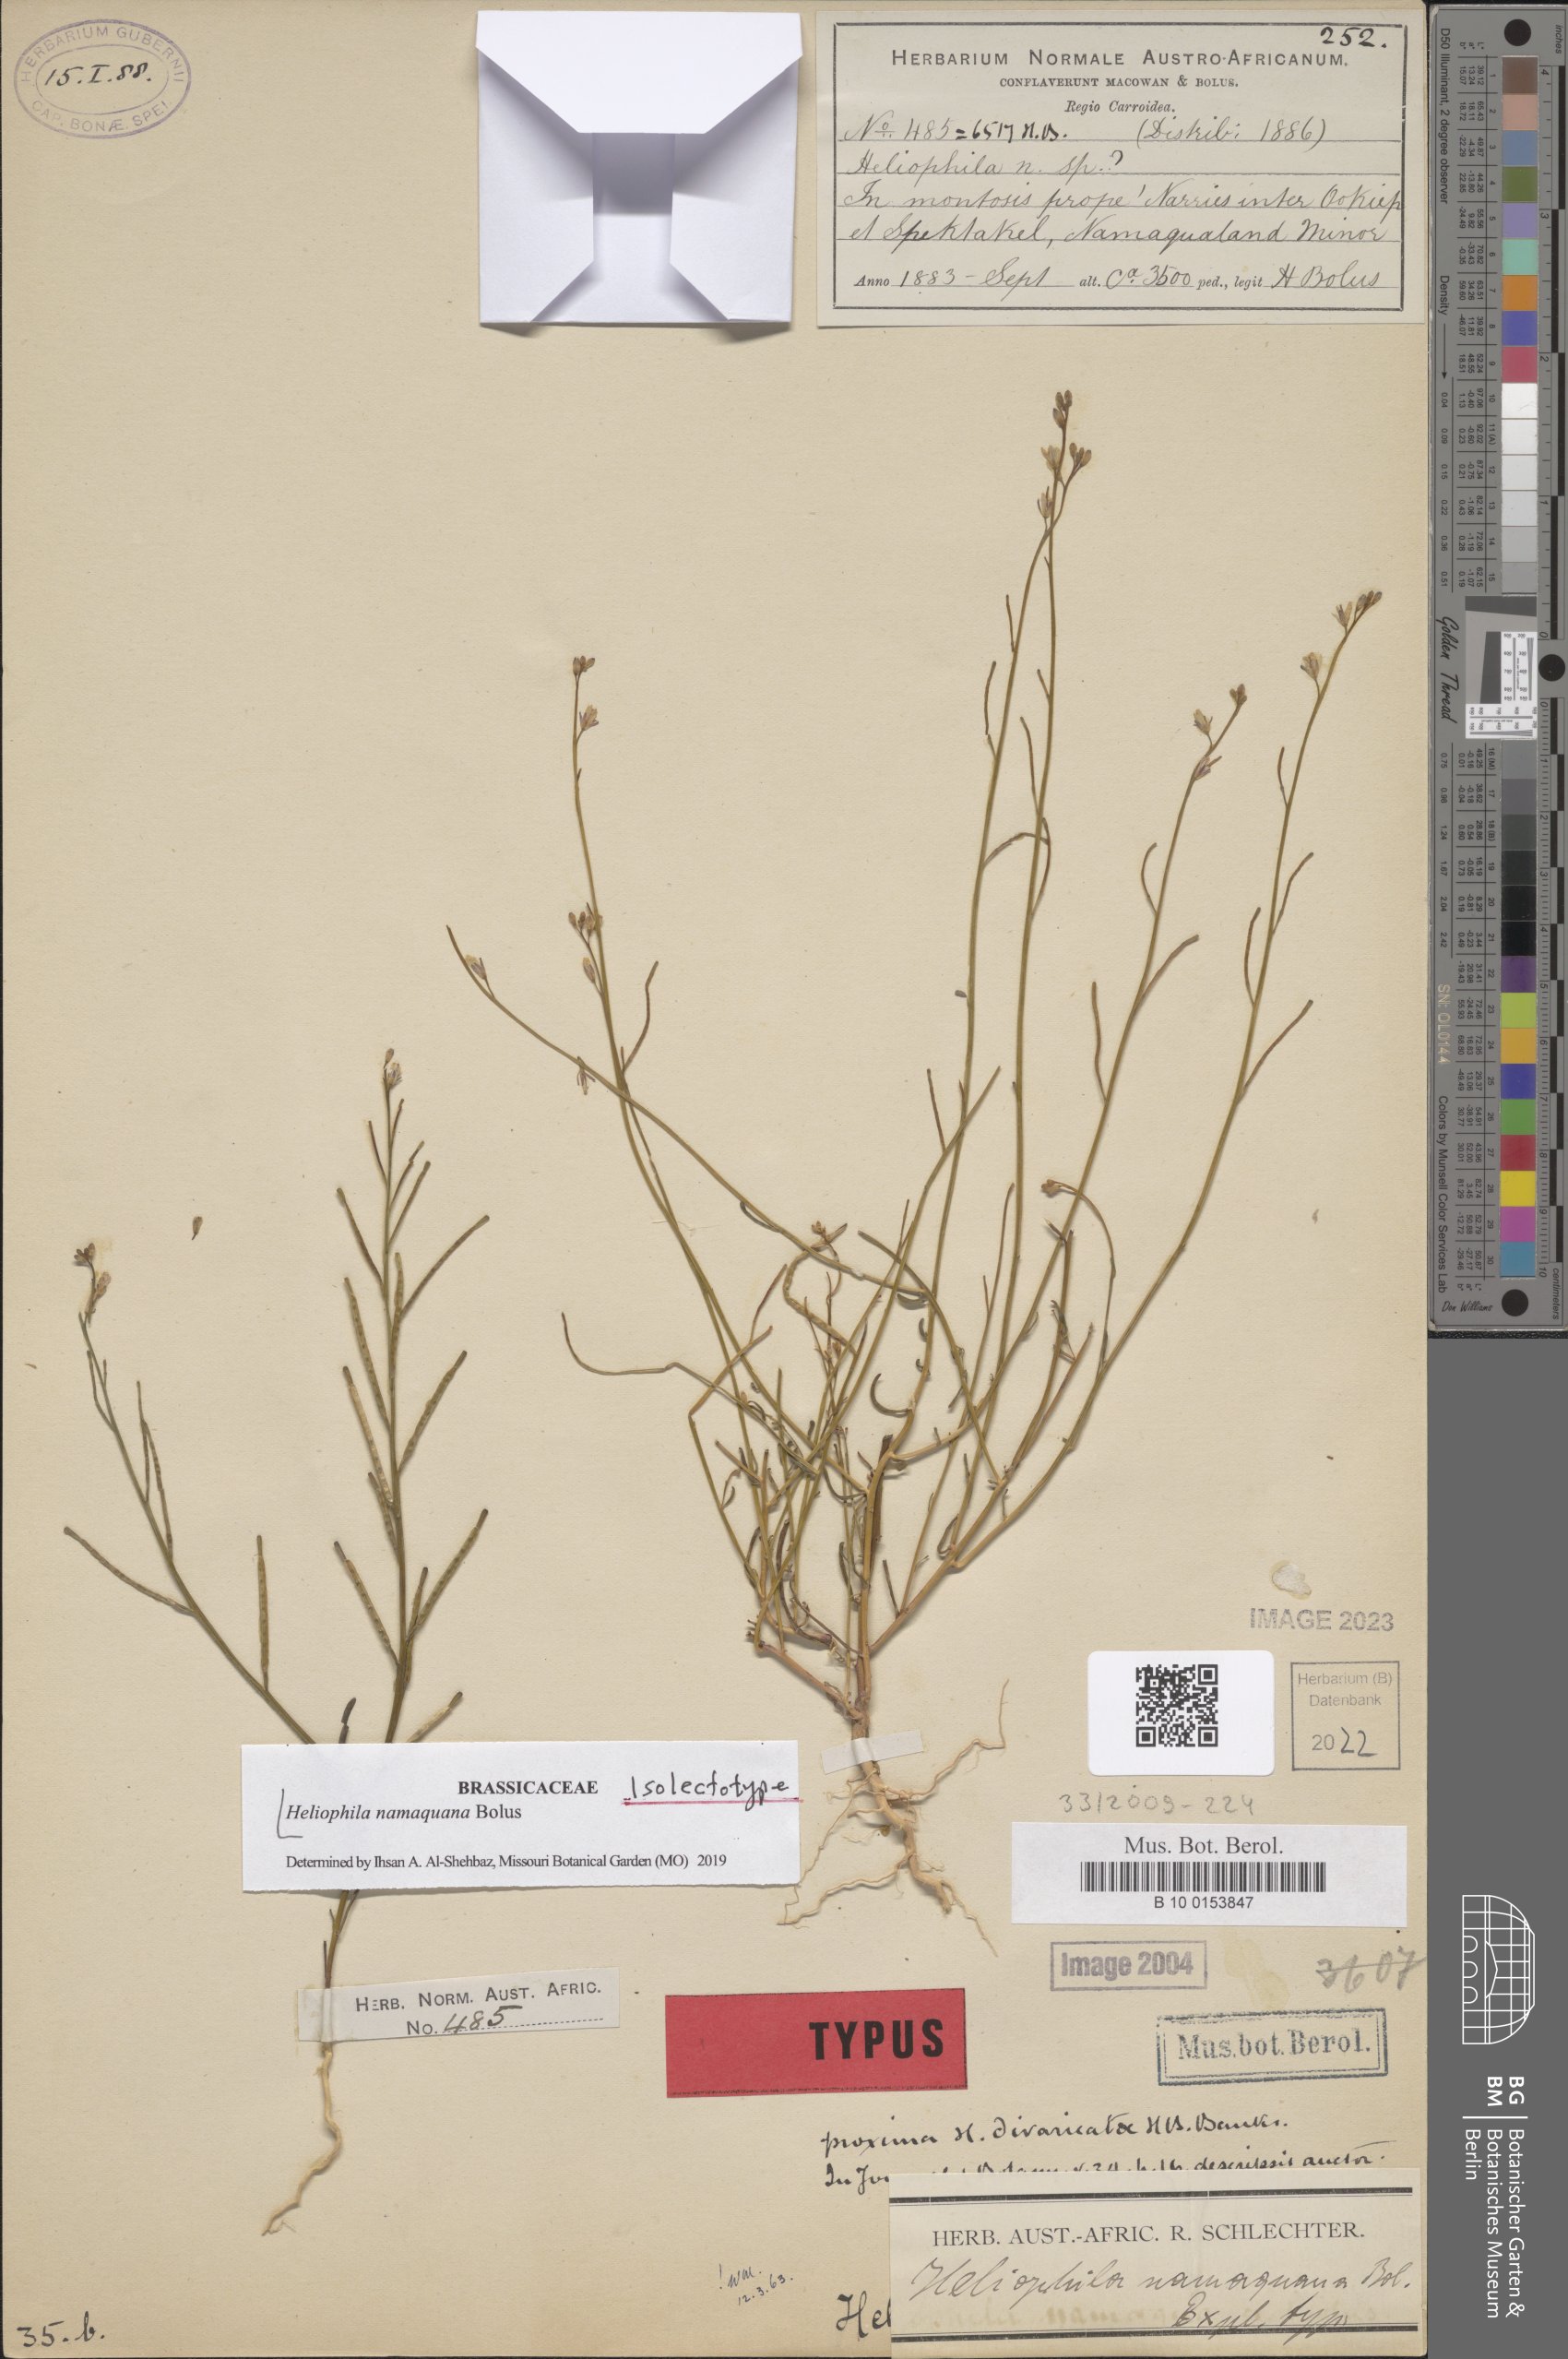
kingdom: Plantae
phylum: Tracheophyta
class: Magnoliopsida
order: Brassicales
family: Brassicaceae
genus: Heliophila
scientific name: Heliophila namaquana
